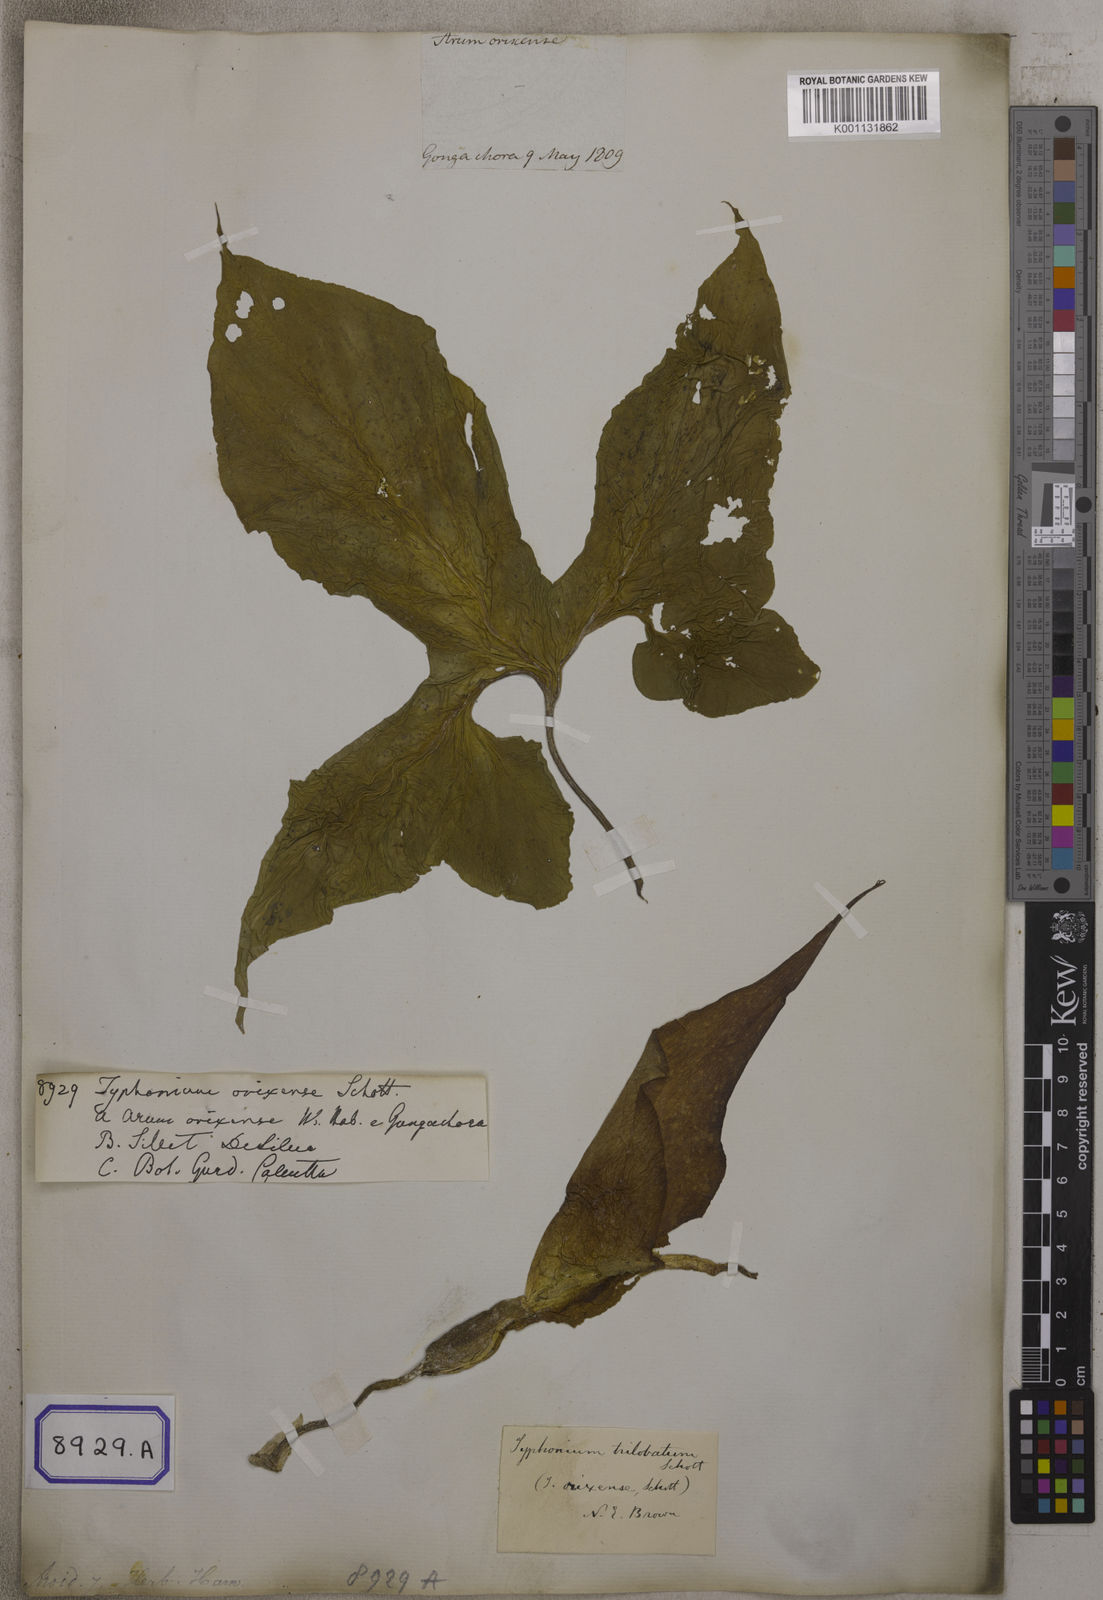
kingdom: Plantae
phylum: Tracheophyta
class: Liliopsida
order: Alismatales
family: Araceae
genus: Typhonium
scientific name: Typhonium trilobatum
